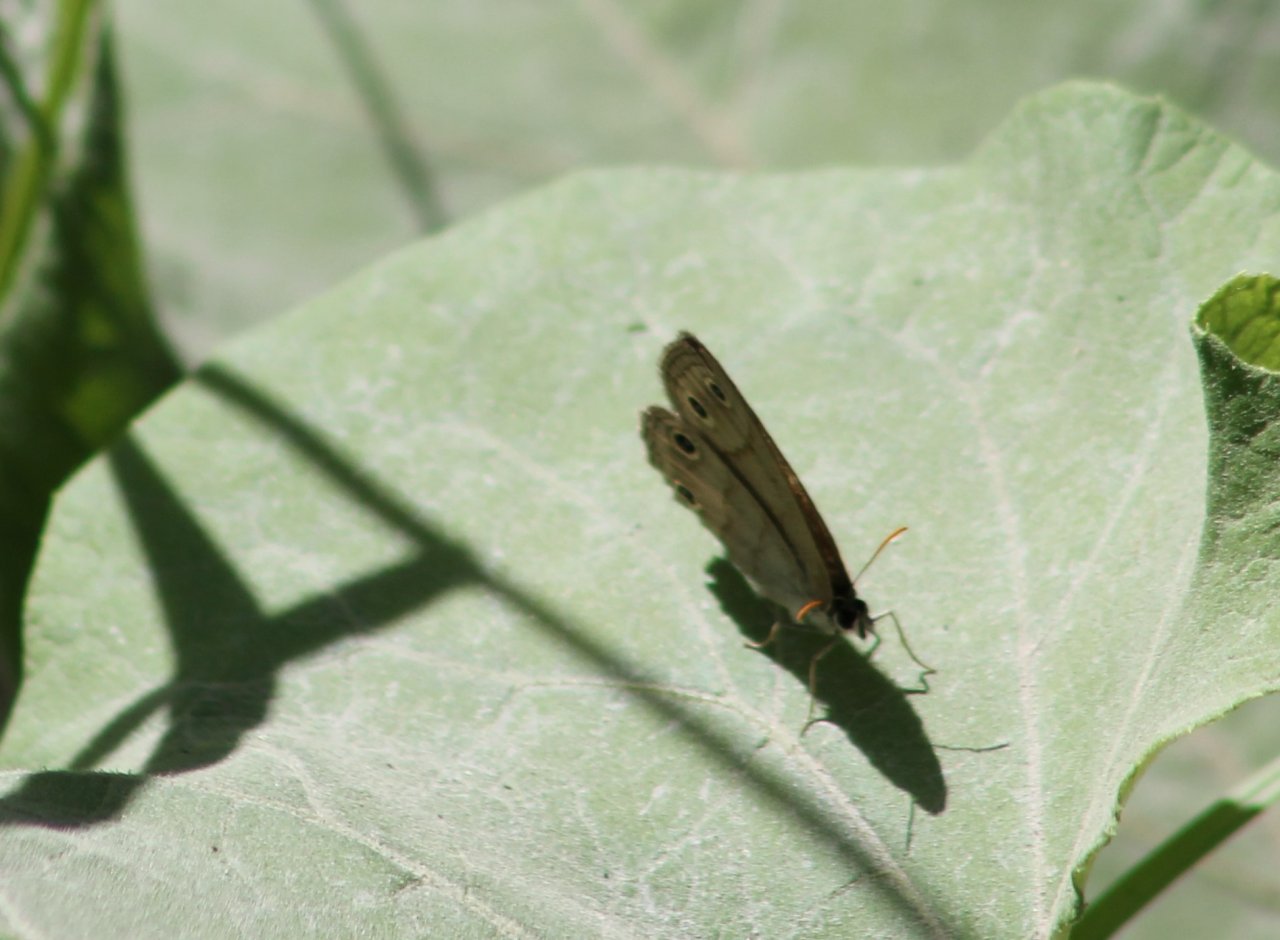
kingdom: Animalia
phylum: Arthropoda
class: Insecta
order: Lepidoptera
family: Nymphalidae
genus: Euptychia
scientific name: Euptychia cymela
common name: Little Wood Satyr
